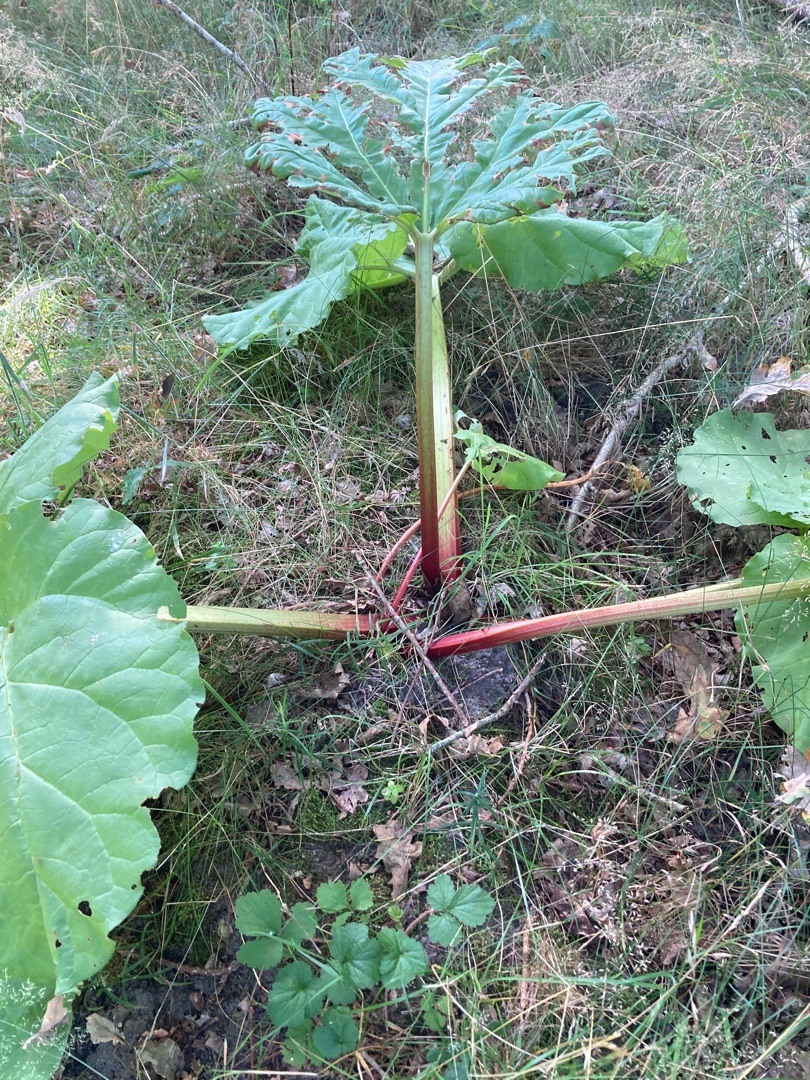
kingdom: Plantae
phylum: Tracheophyta
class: Magnoliopsida
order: Caryophyllales
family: Polygonaceae
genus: Rheum
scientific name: Rheum rhabarbarum
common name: Rabarber
